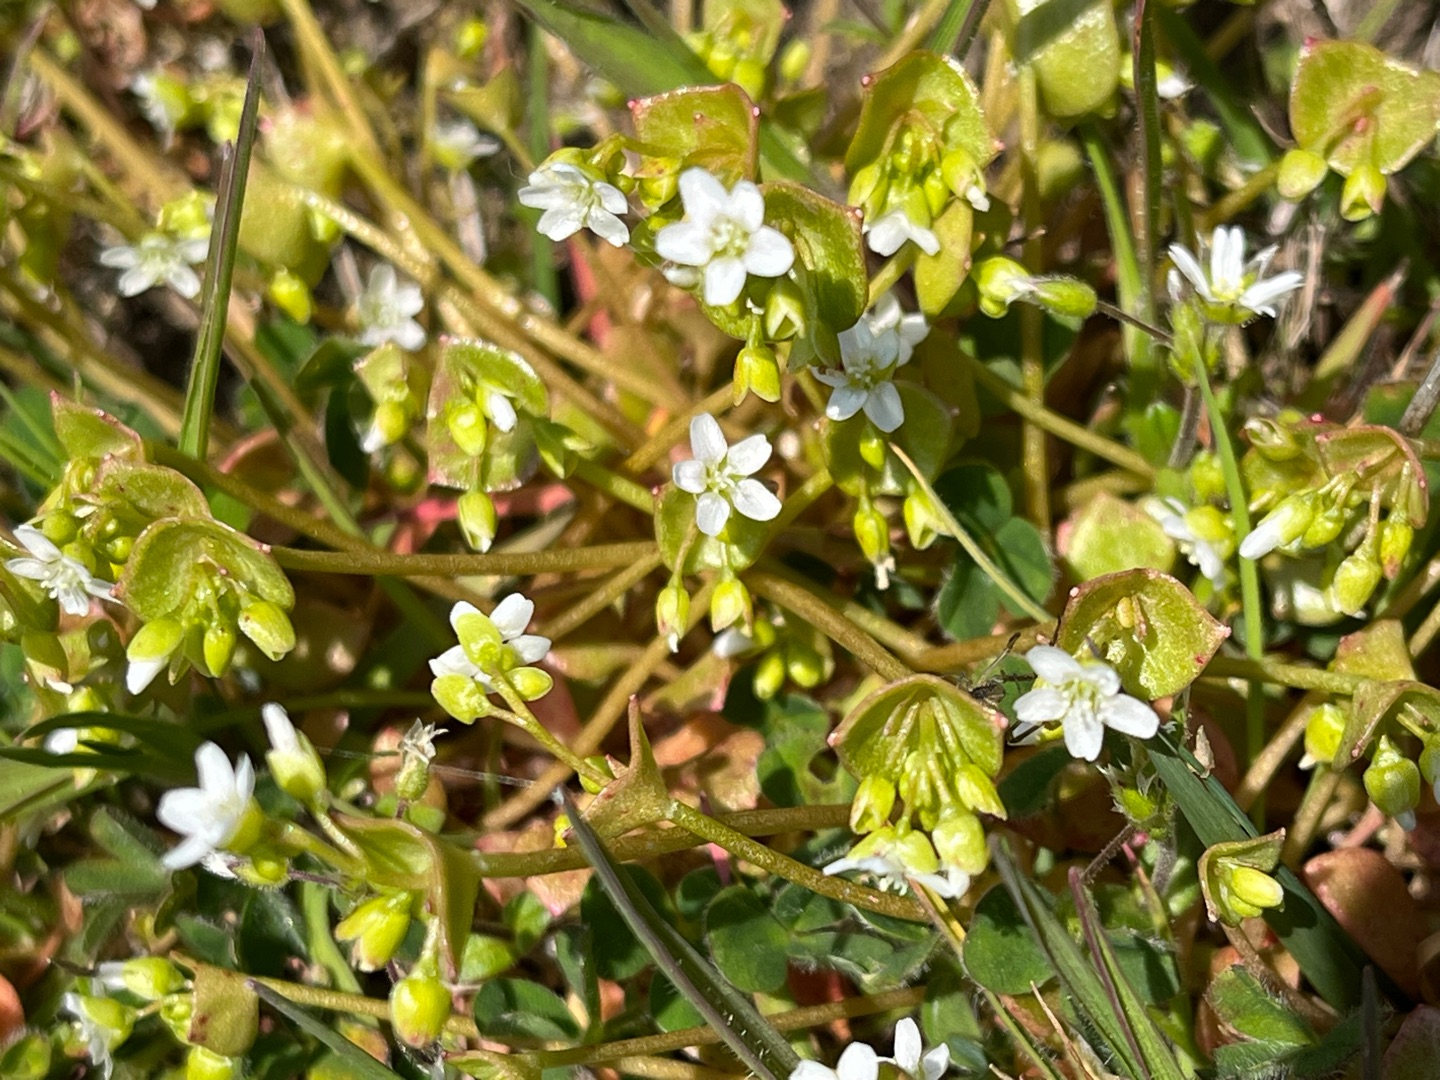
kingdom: Plantae
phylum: Tracheophyta
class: Magnoliopsida
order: Caryophyllales
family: Montiaceae
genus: Claytonia
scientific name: Claytonia perfoliata
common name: Spiselig vinterportulak
